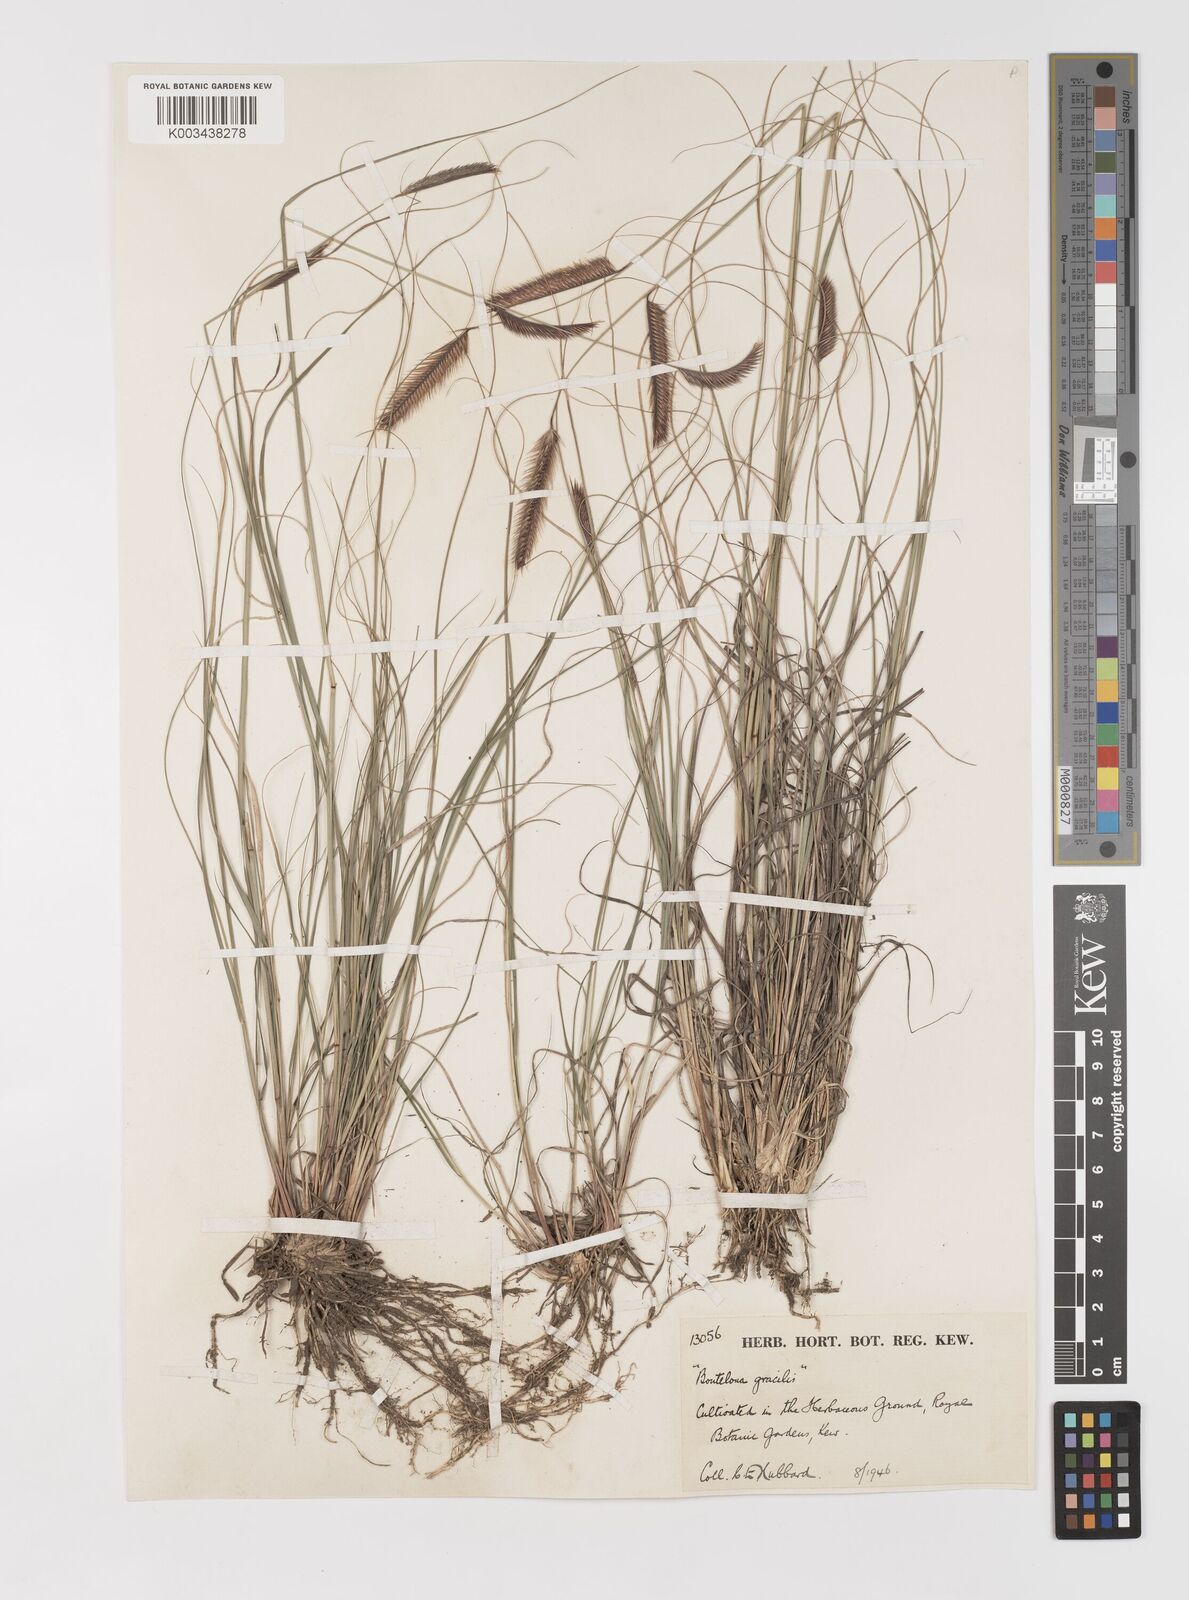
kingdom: Plantae
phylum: Tracheophyta
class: Liliopsida
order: Poales
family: Poaceae
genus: Bouteloua
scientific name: Bouteloua gracilis
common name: Blue grama
